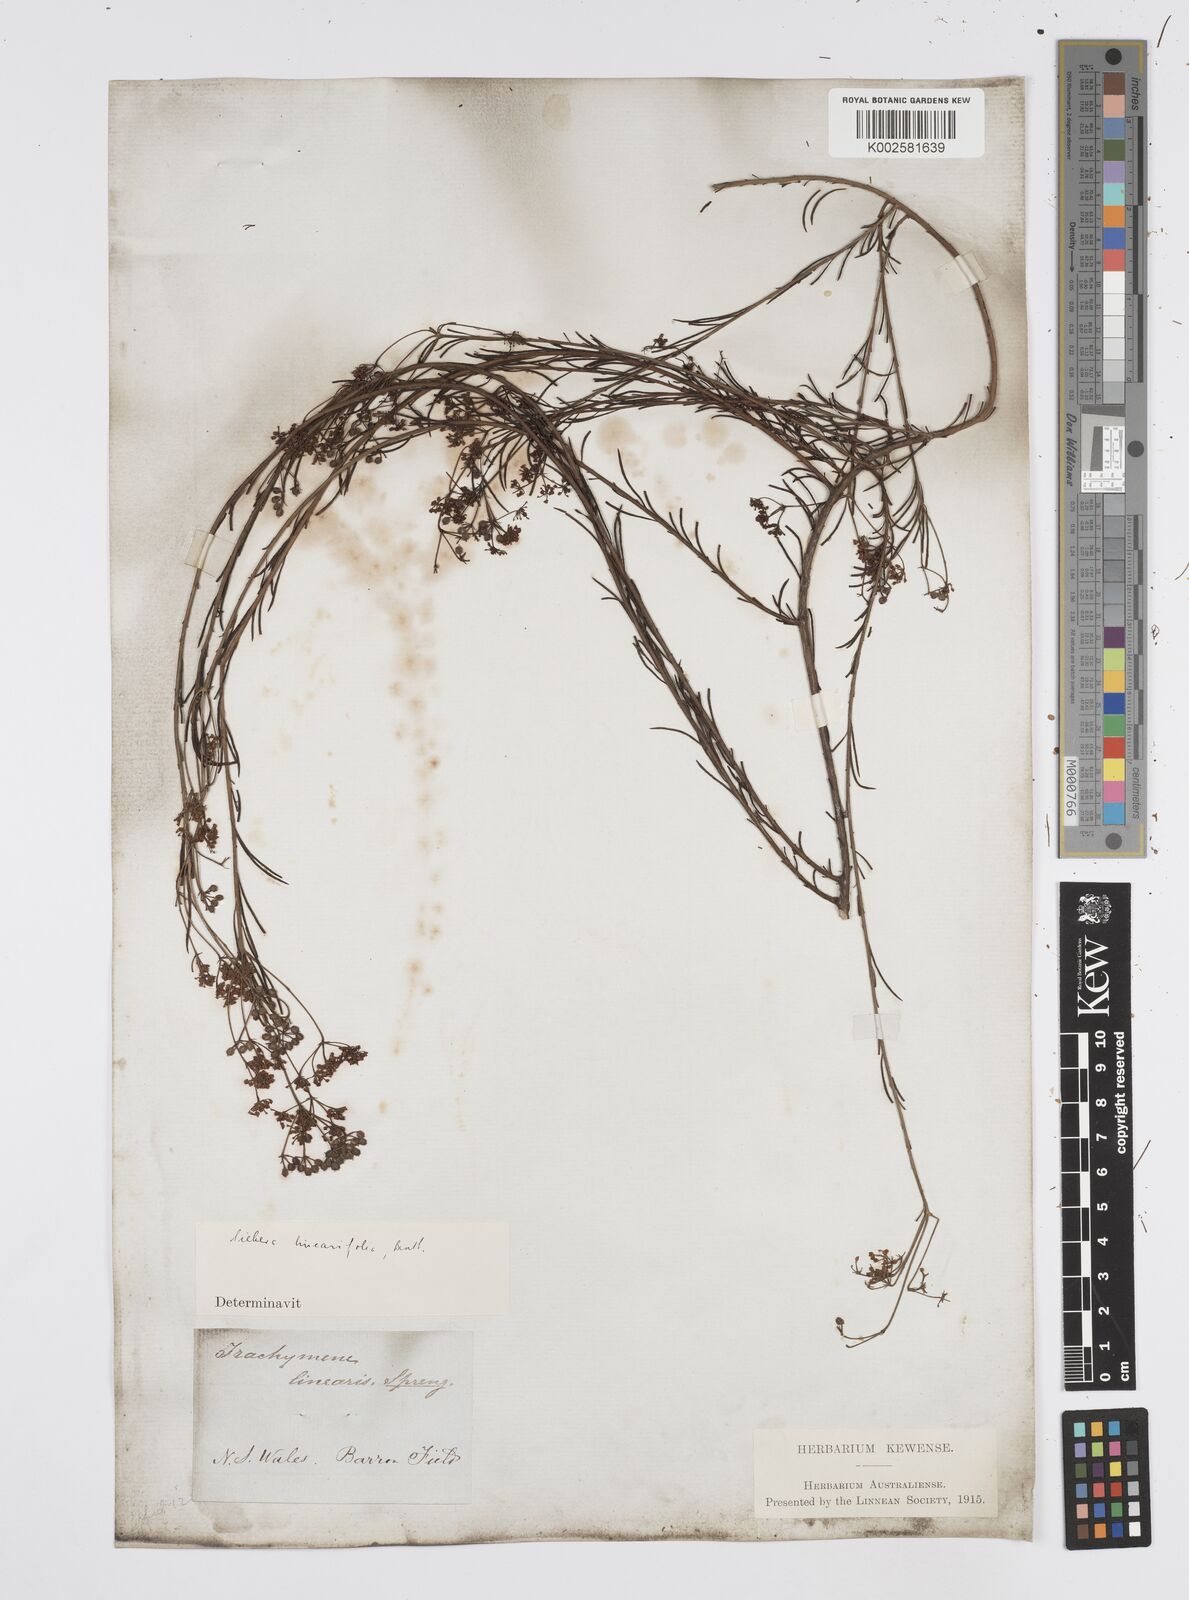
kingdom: Plantae
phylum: Tracheophyta
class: Magnoliopsida
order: Apiales
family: Apiaceae
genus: Platysace
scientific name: Platysace linearifolia
